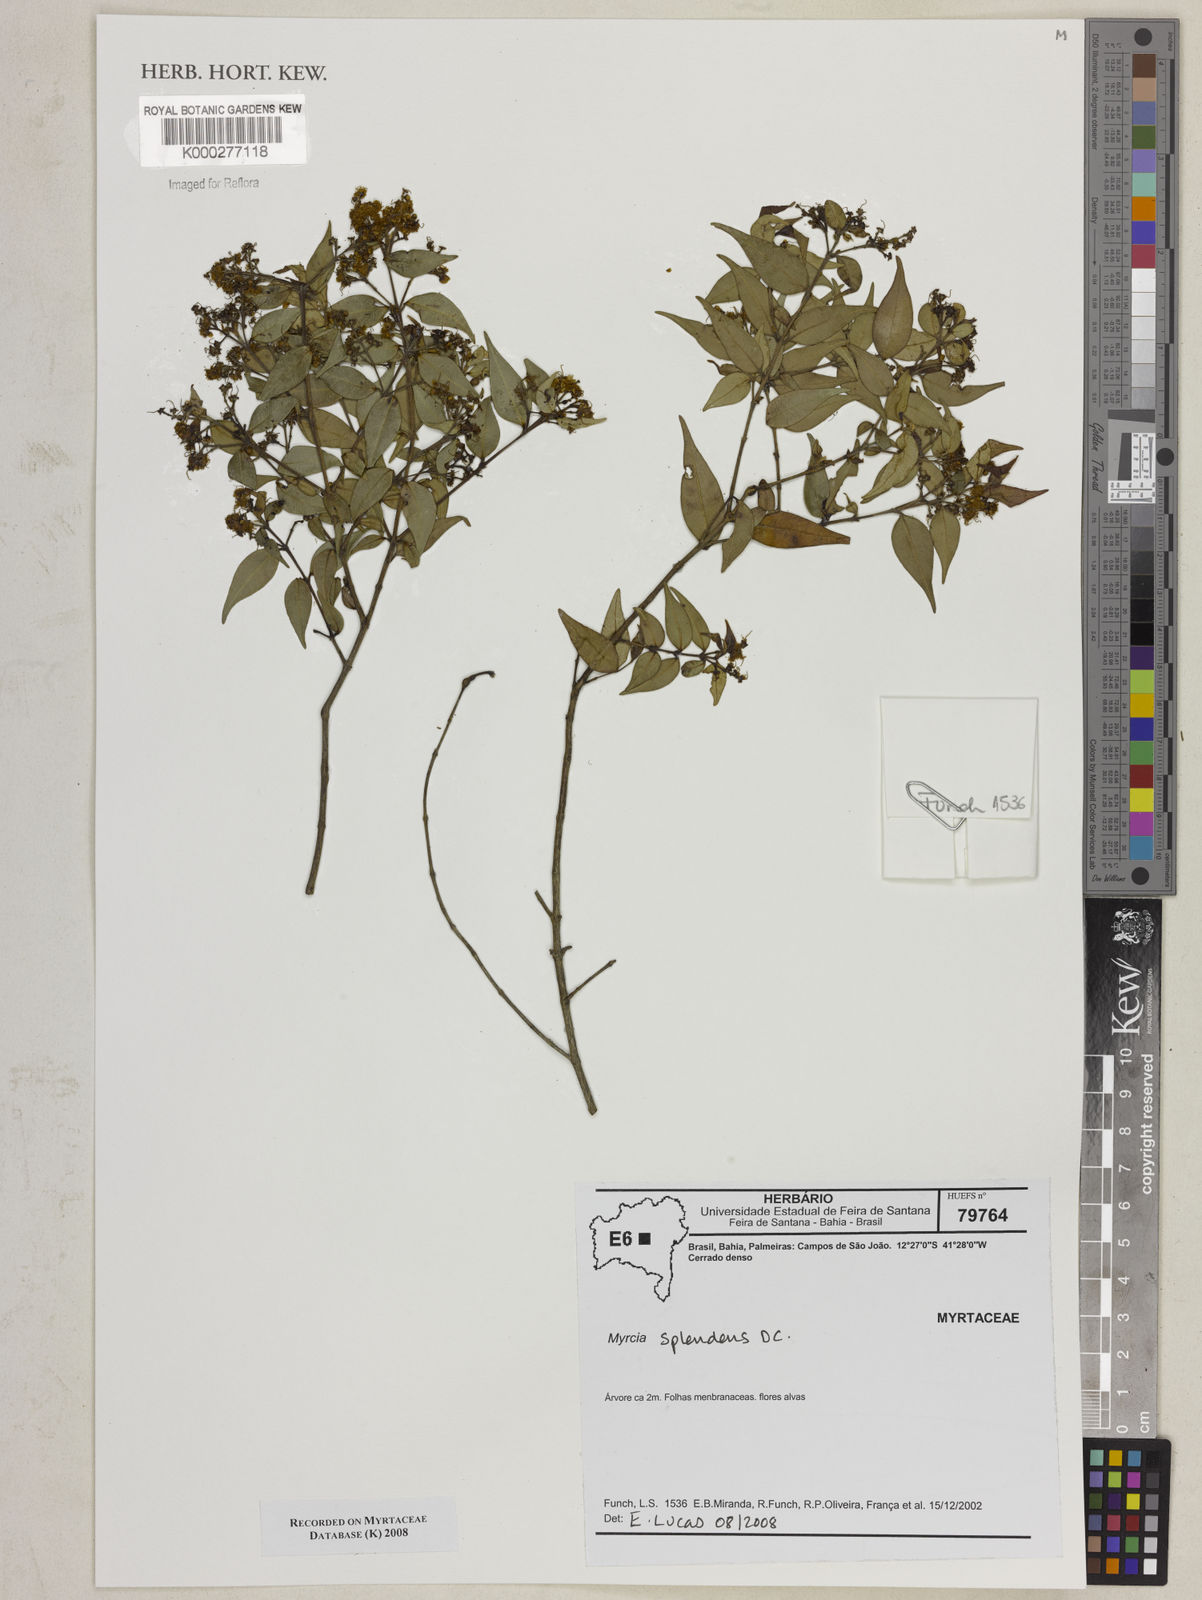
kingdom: Plantae
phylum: Tracheophyta
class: Magnoliopsida
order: Myrtales
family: Myrtaceae
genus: Myrcia
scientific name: Myrcia splendens
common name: Surinam cherry
